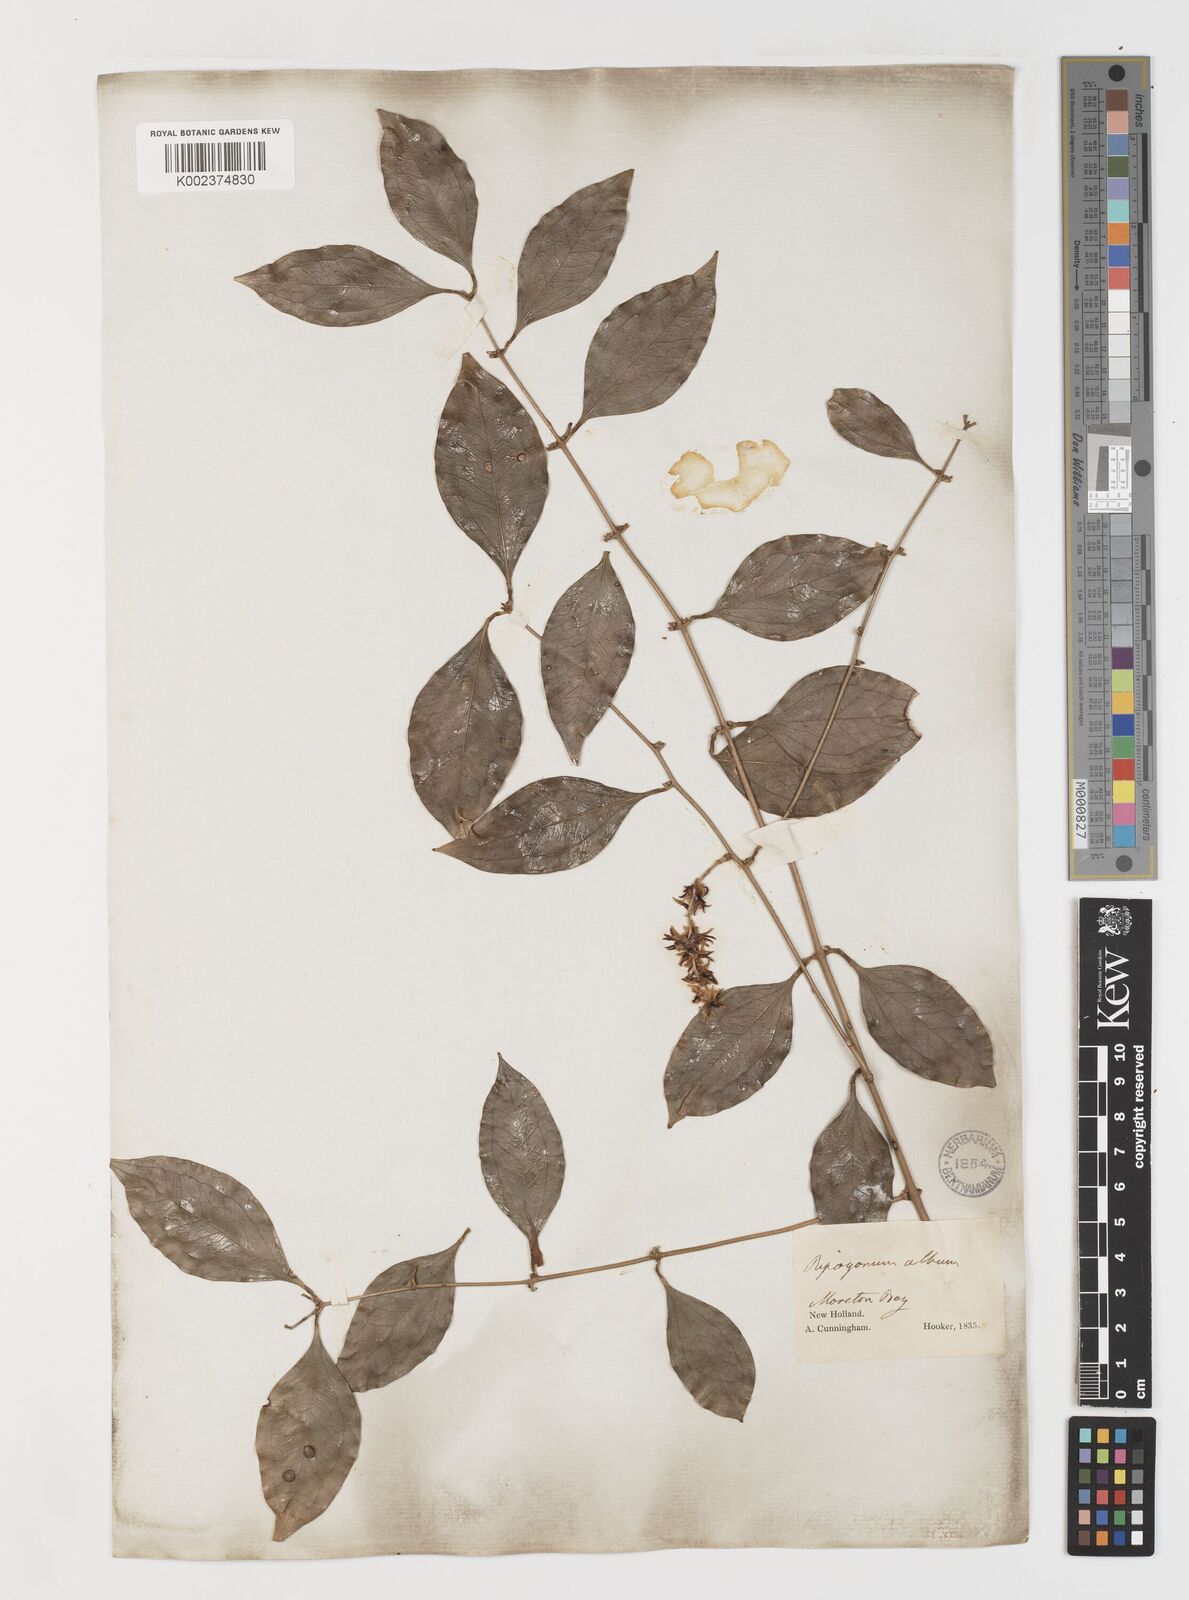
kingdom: Plantae
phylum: Tracheophyta
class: Liliopsida
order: Liliales
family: Ripogonaceae
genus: Ripogonum
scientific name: Ripogonum album
